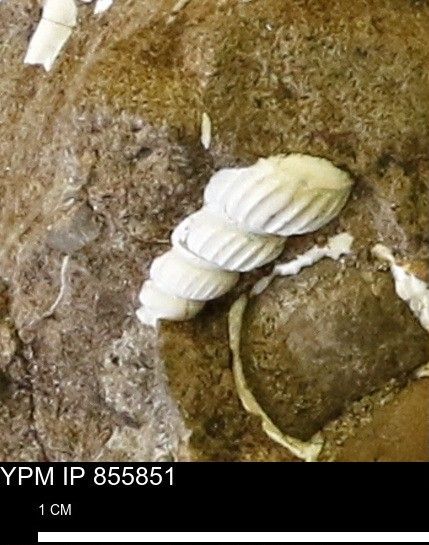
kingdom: Animalia
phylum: Mollusca
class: Gastropoda
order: Littorinimorpha
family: Aporrhaidae
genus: Drepanochilus
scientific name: Drepanochilus
